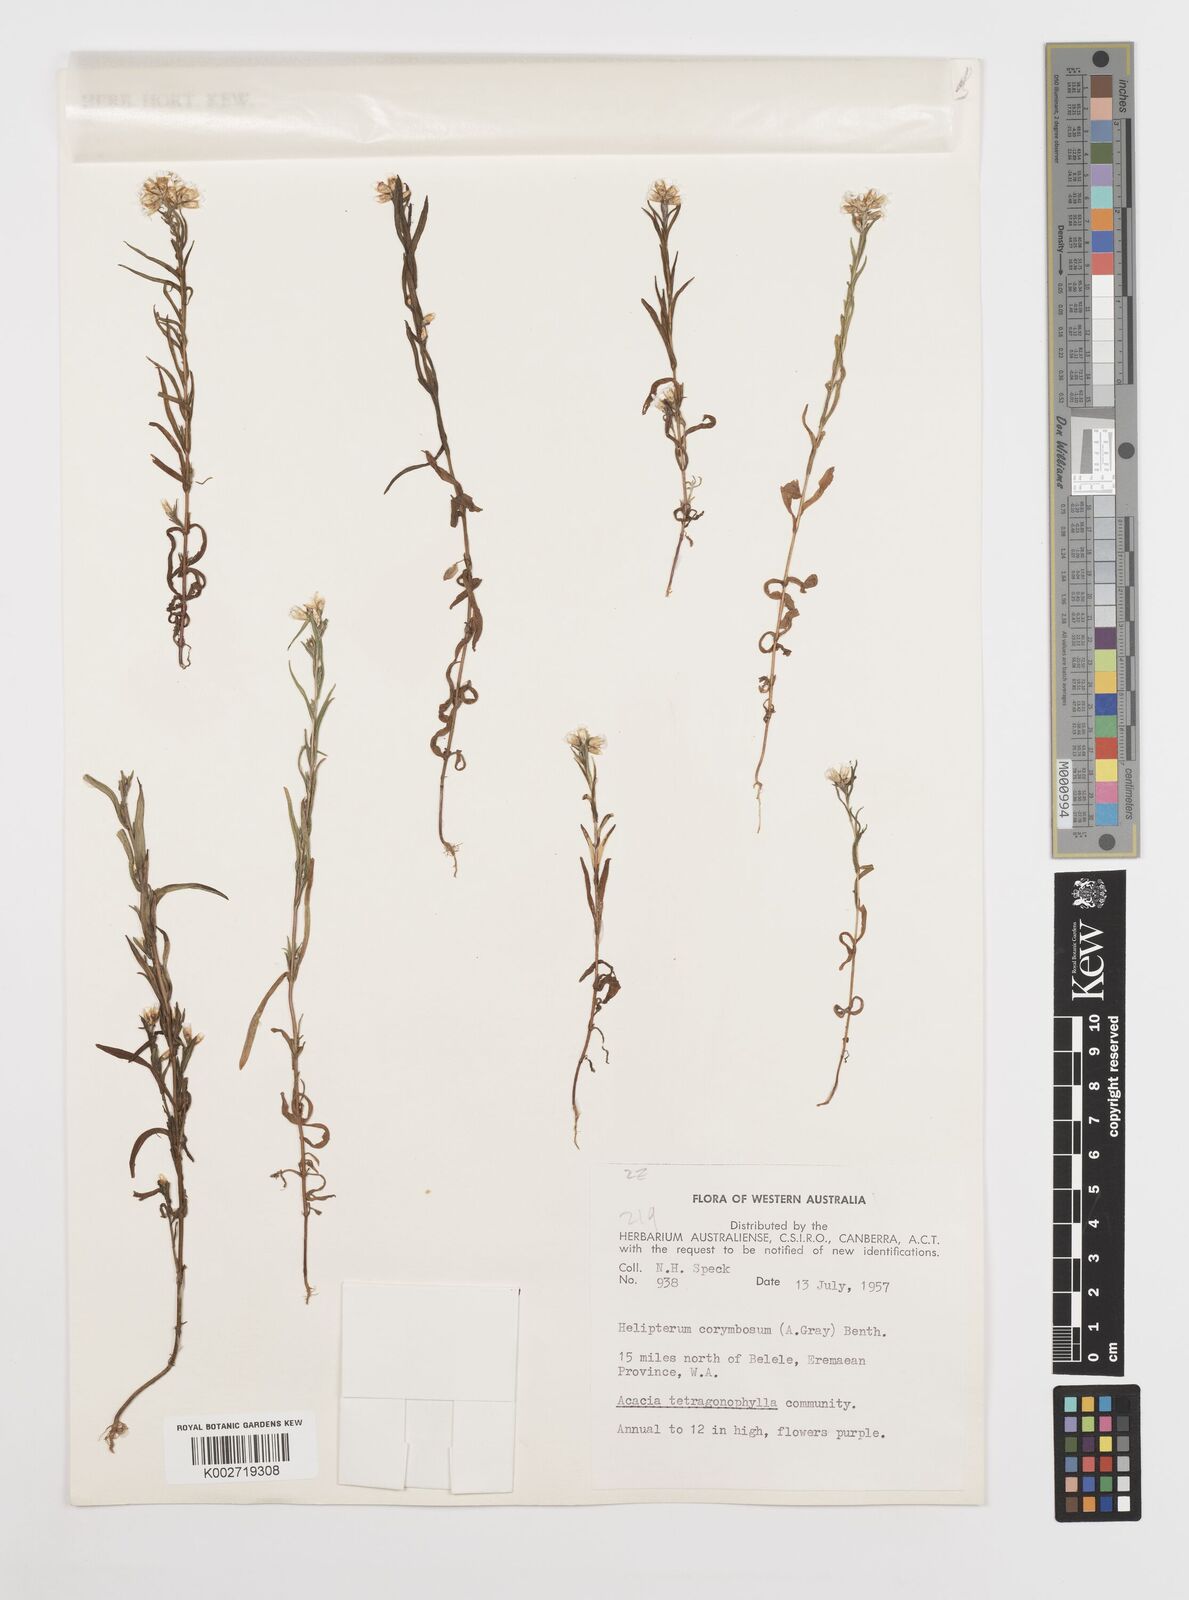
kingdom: Plantae
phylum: Tracheophyta
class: Magnoliopsida
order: Asterales
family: Asteraceae
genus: Rhodanthe
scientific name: Rhodanthe corymbosa
